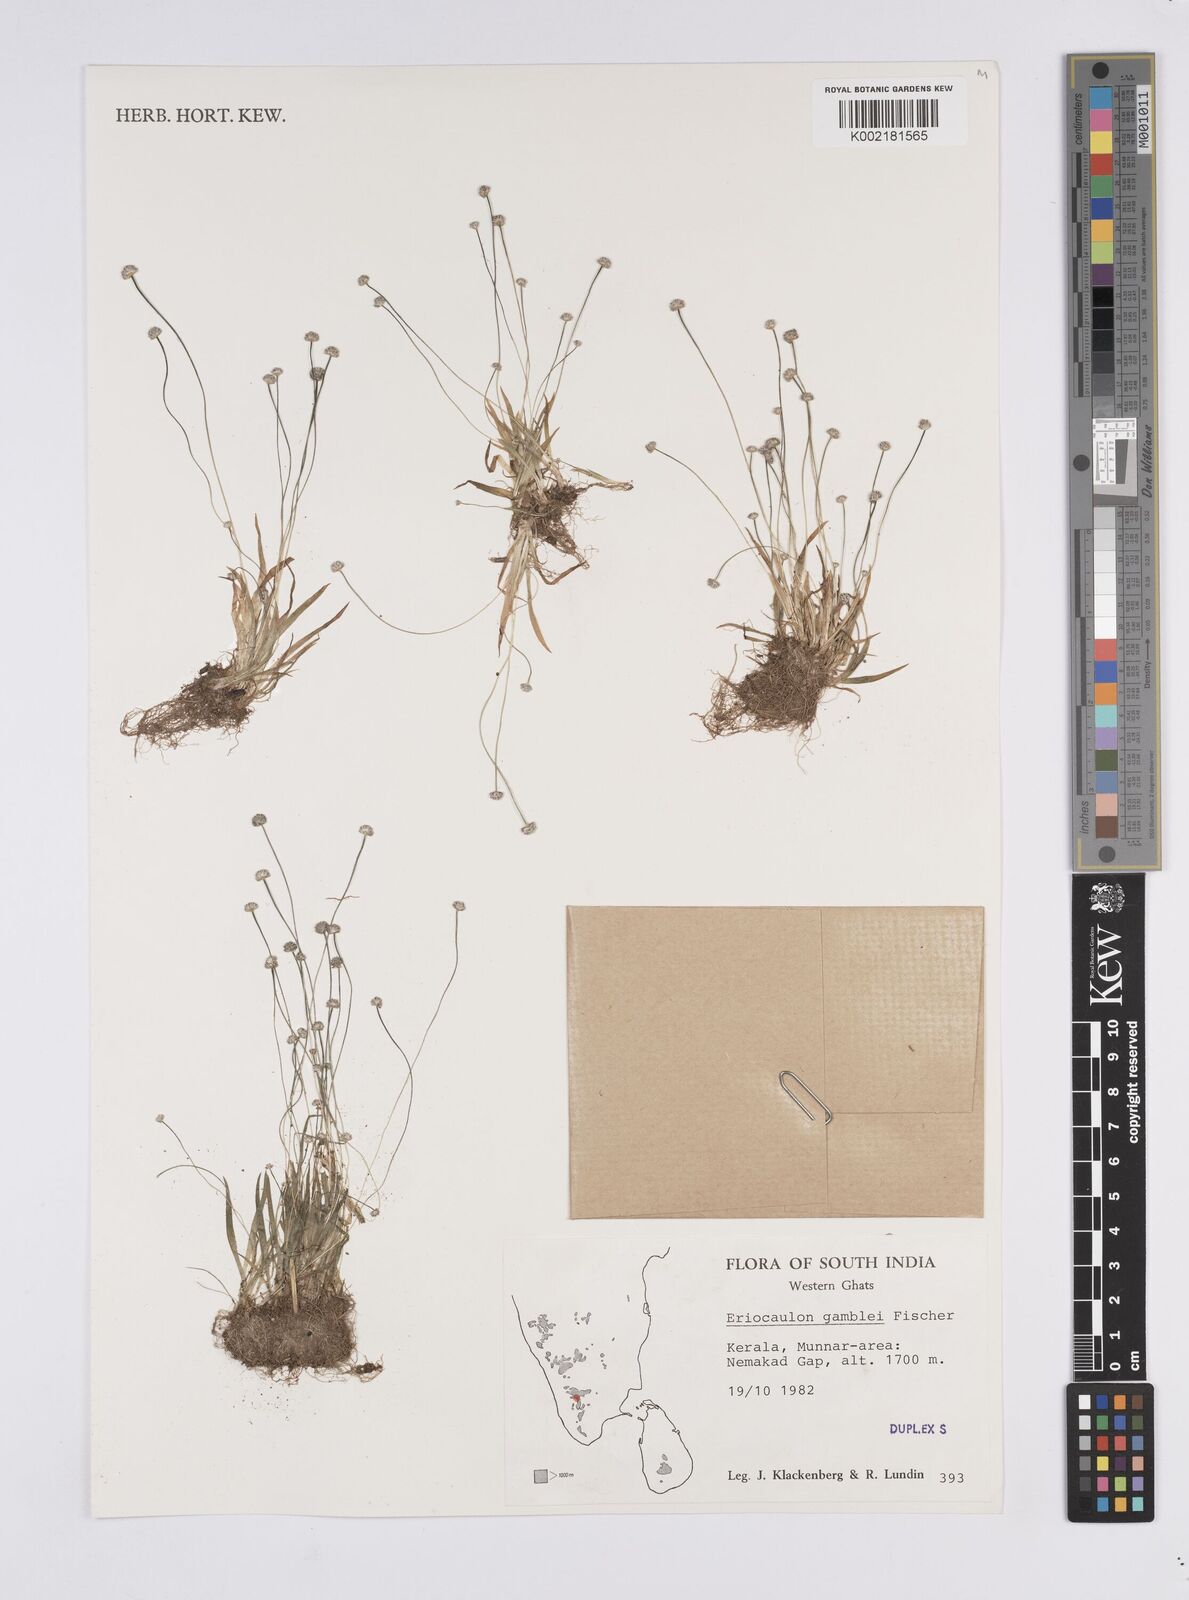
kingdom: Plantae
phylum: Tracheophyta
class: Liliopsida
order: Poales
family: Eriocaulaceae
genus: Eriocaulon
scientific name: Eriocaulon thwaitesii
